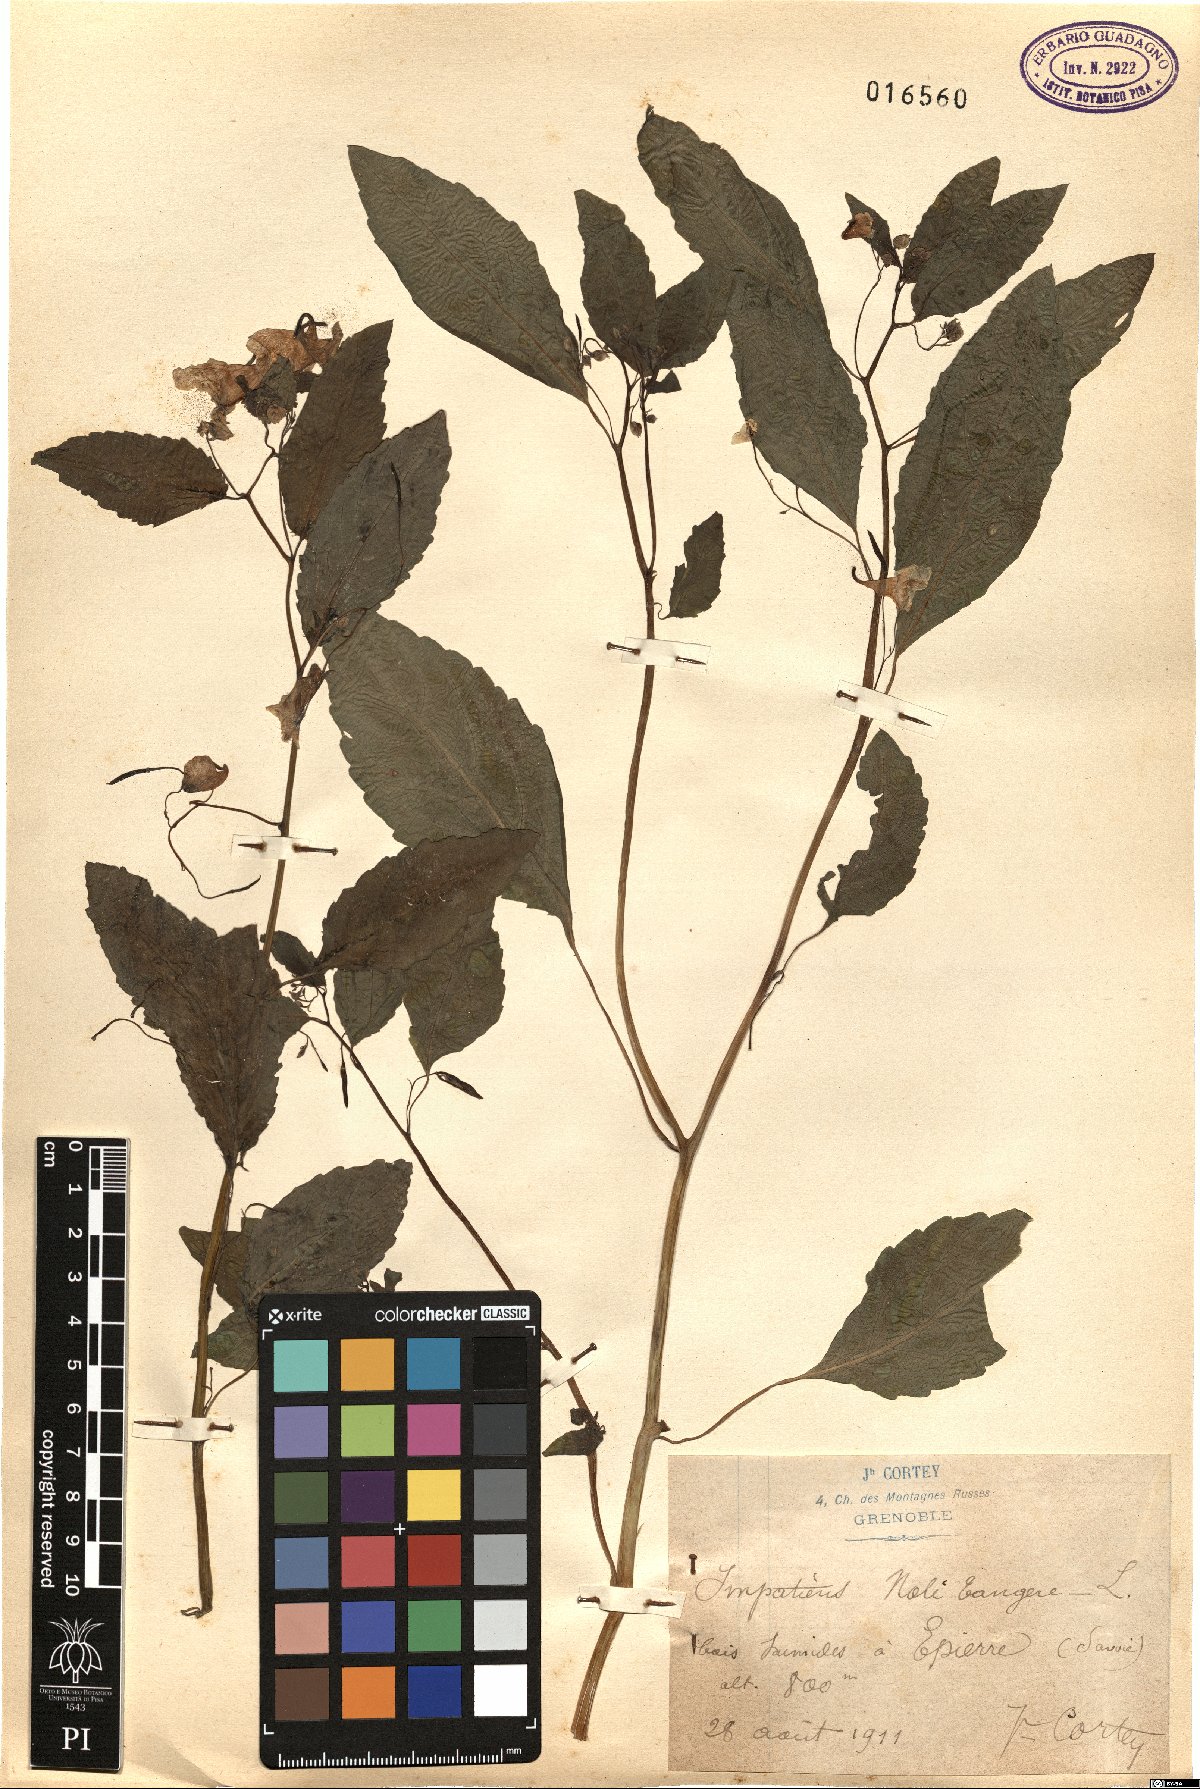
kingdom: Plantae
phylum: Tracheophyta
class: Magnoliopsida
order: Ericales
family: Balsaminaceae
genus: Impatiens
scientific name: Impatiens noli-tangere
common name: Touch-me-not balsam
